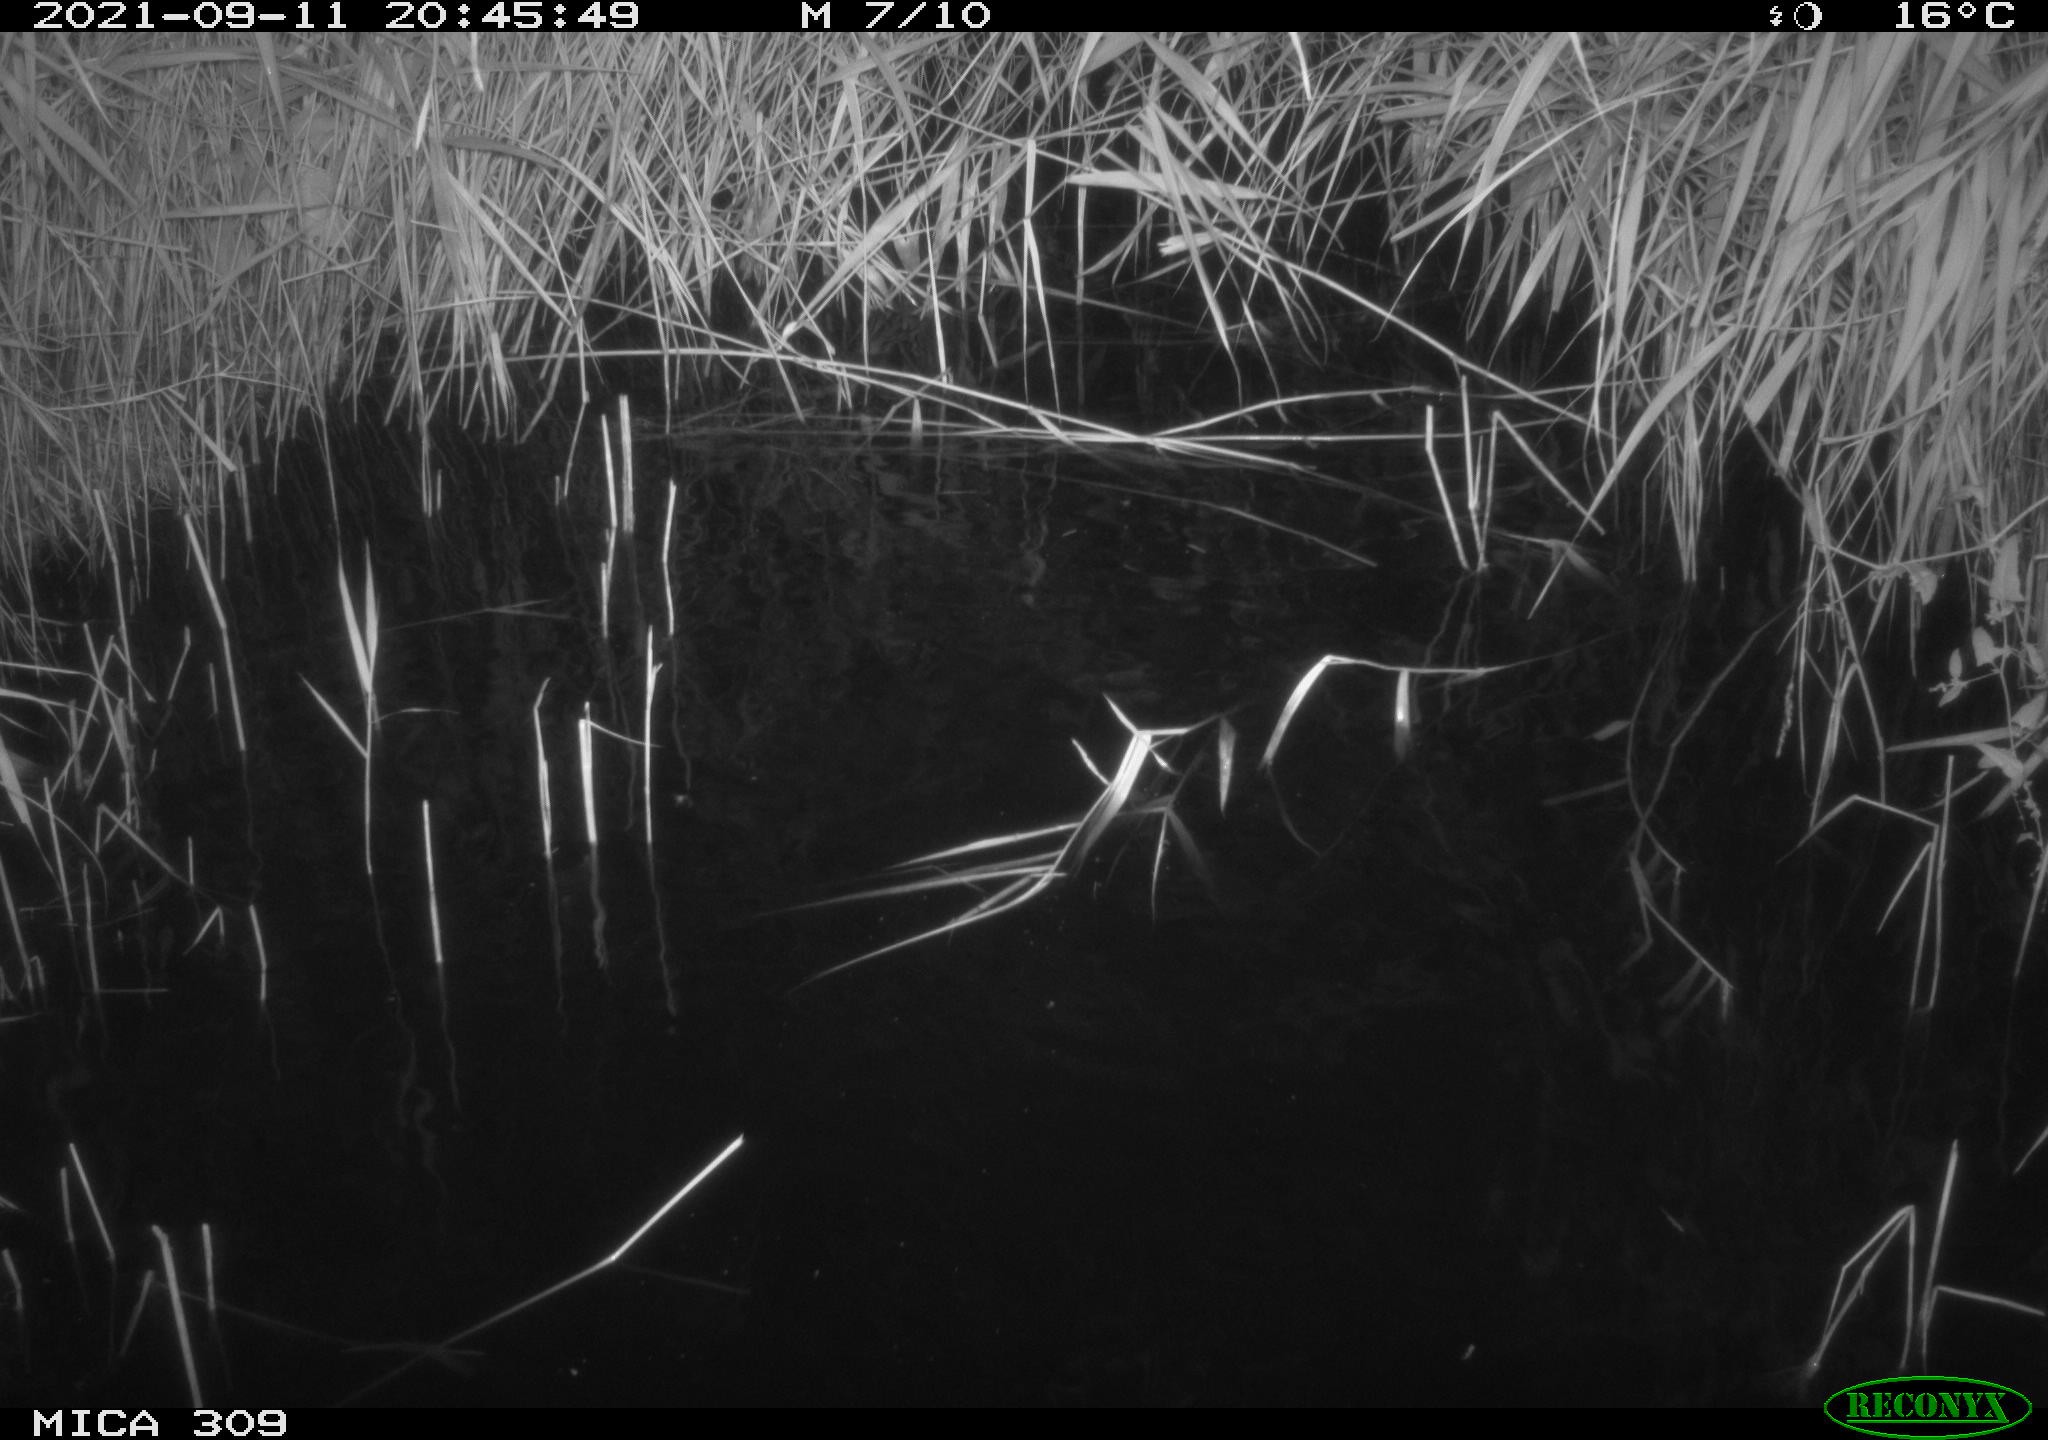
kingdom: Animalia
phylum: Chordata
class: Aves
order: Anseriformes
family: Anatidae
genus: Anas
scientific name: Anas platyrhynchos
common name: Mallard
